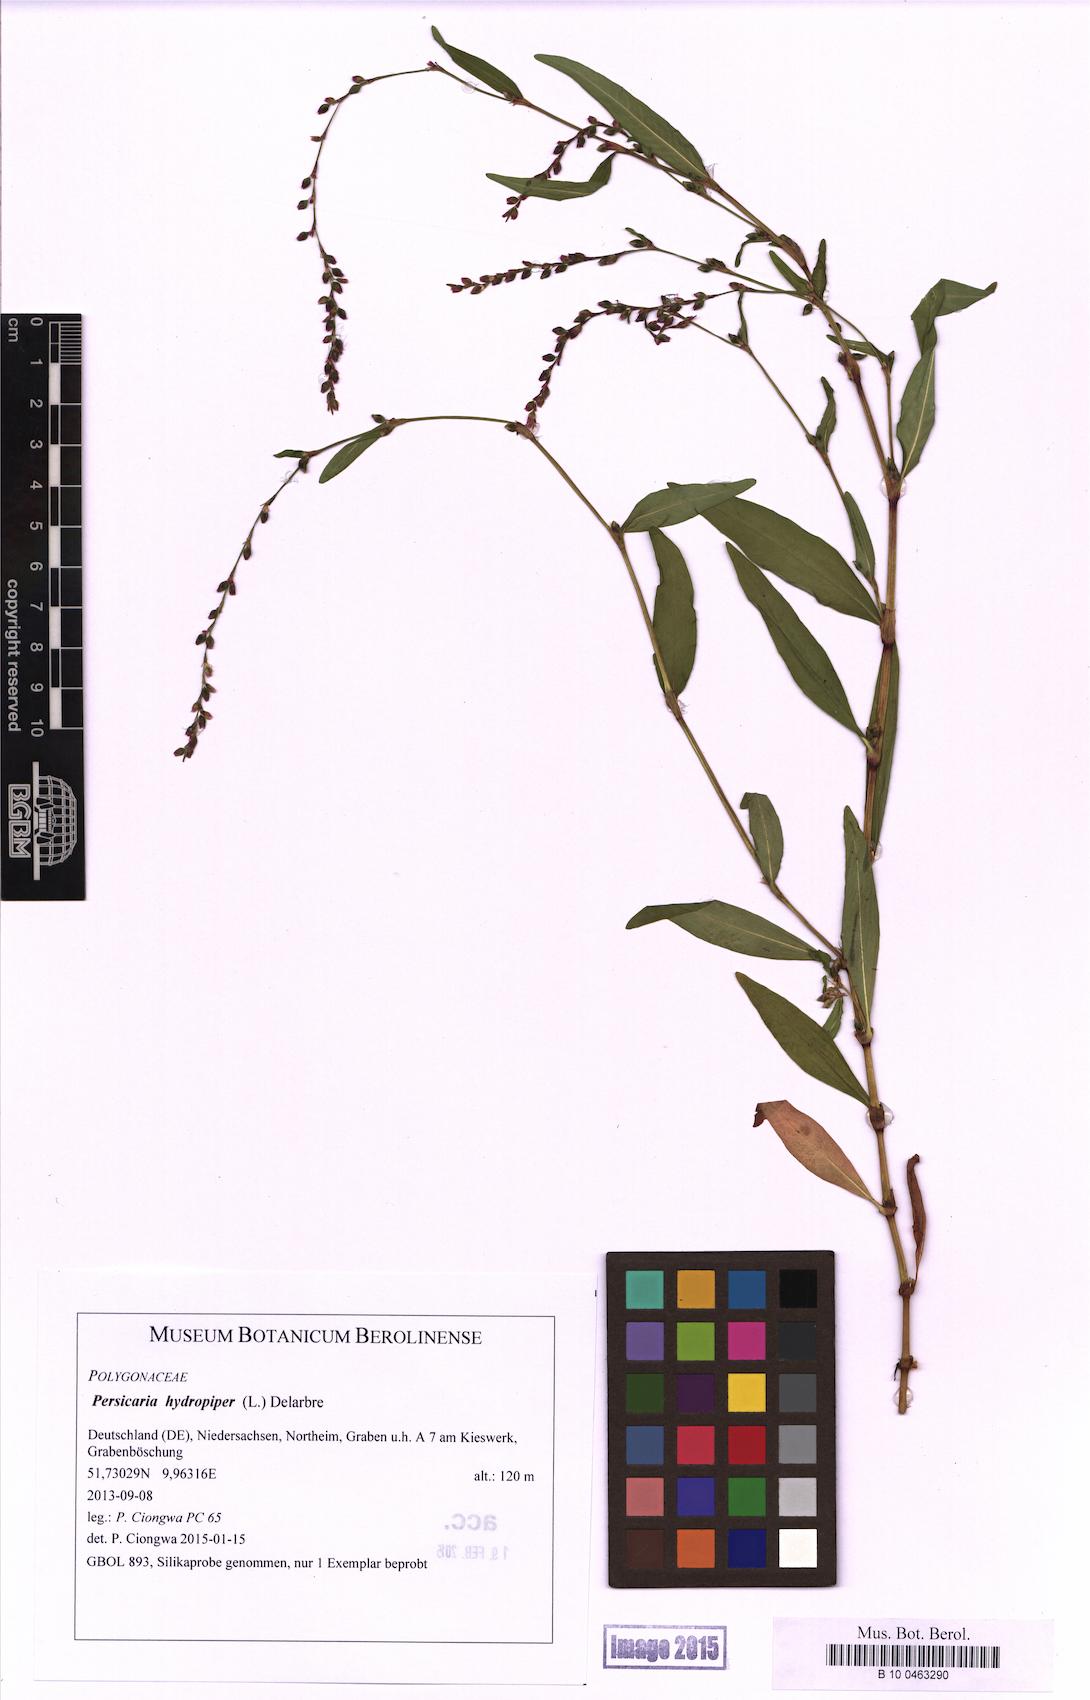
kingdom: Plantae
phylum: Tracheophyta
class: Magnoliopsida
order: Caryophyllales
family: Polygonaceae
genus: Persicaria
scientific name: Persicaria hydropiper
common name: Water-pepper
